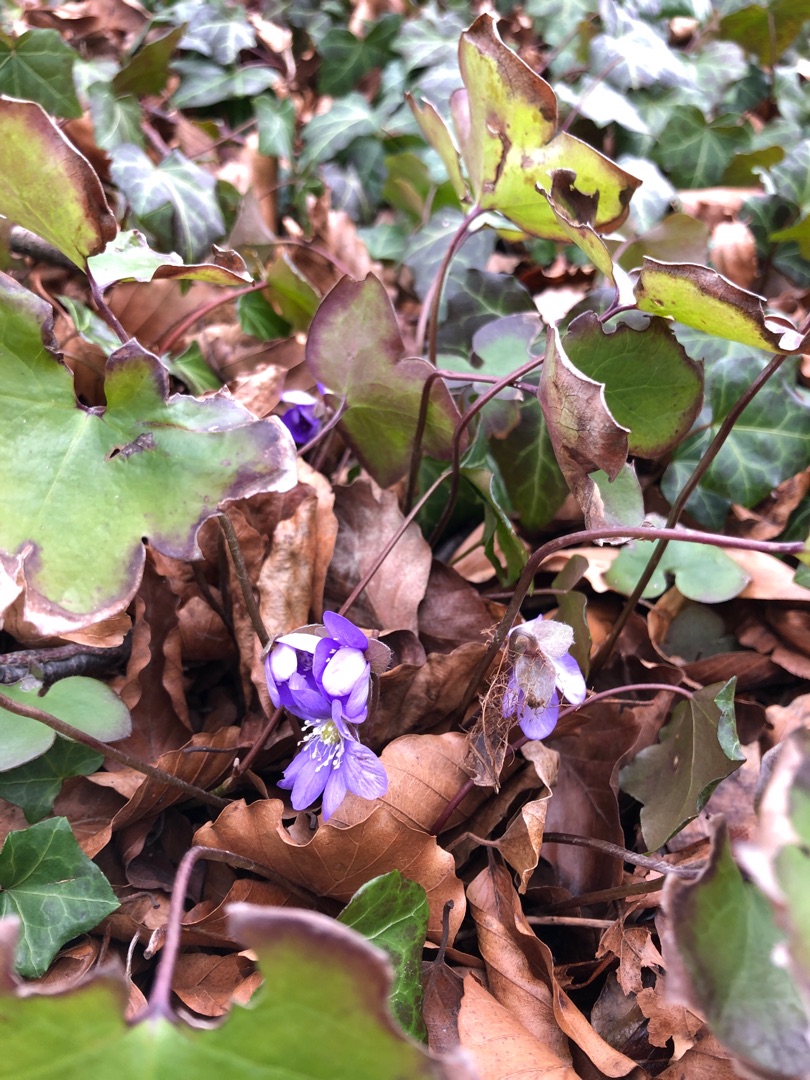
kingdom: Plantae
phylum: Tracheophyta
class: Magnoliopsida
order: Ranunculales
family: Ranunculaceae
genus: Hepatica
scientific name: Hepatica nobilis
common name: Blå anemone
